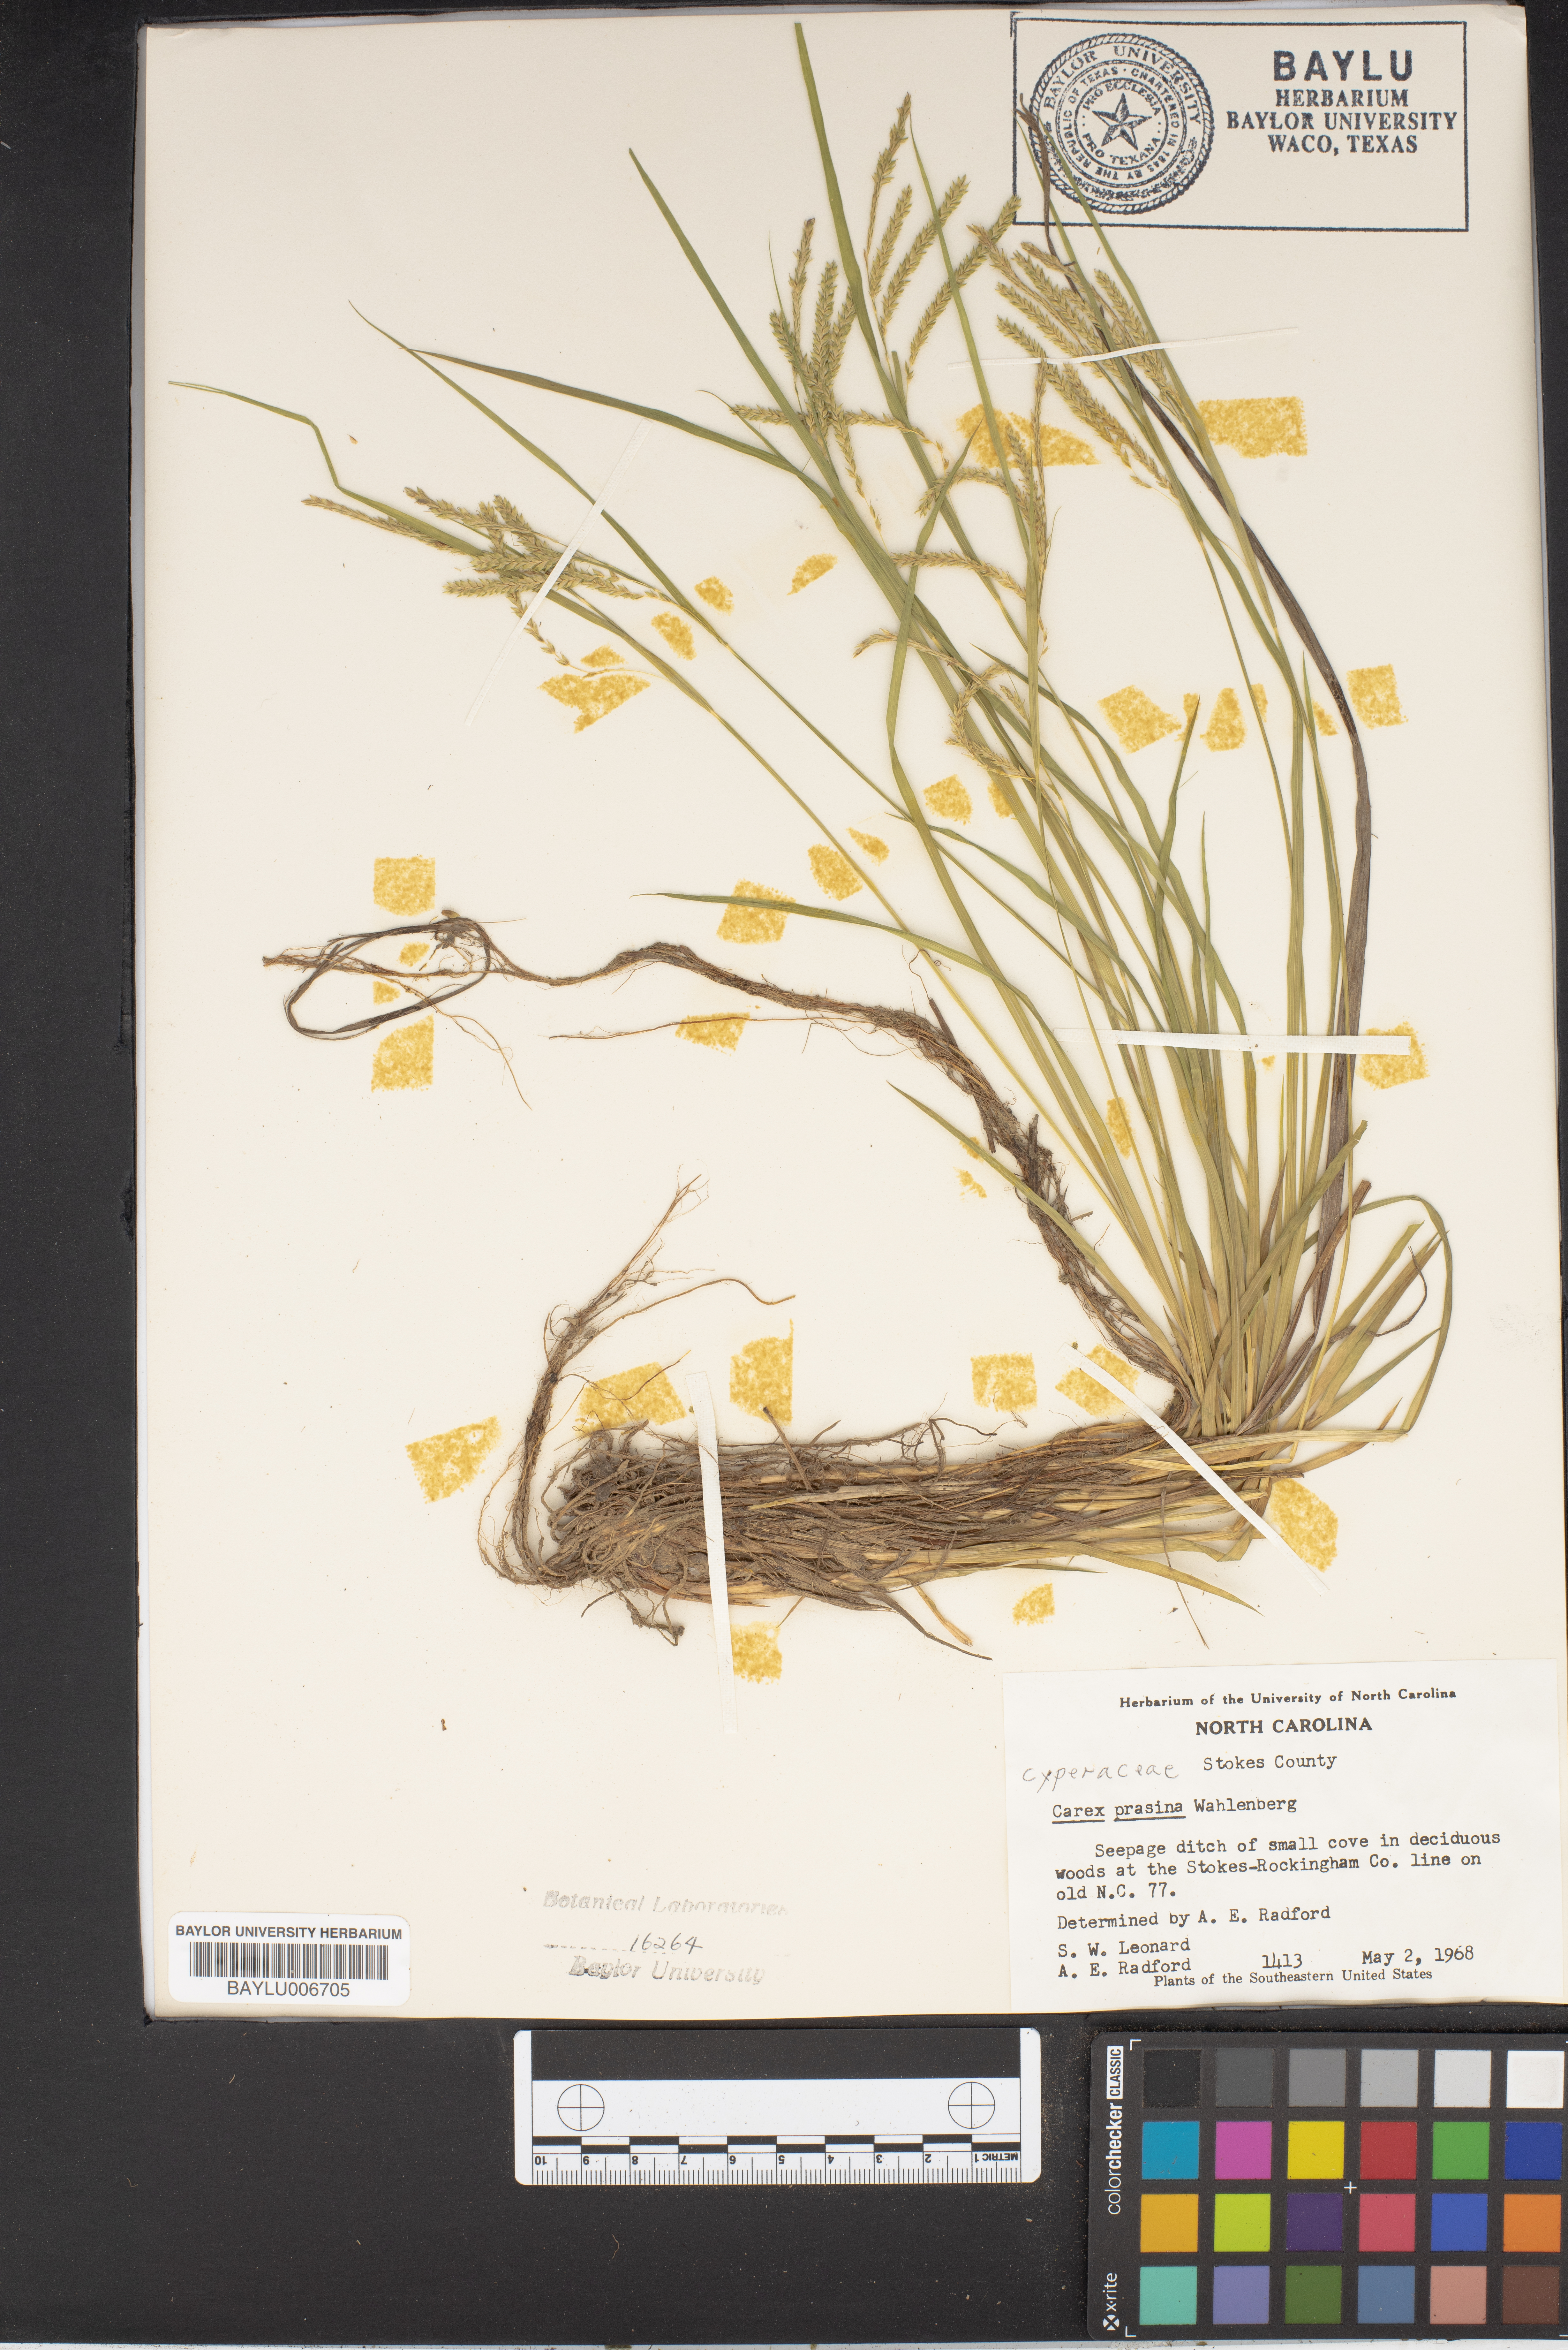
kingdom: Plantae
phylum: Tracheophyta
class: Liliopsida
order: Poales
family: Cyperaceae
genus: Carex
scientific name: Carex prasina
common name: Drooping sedge
